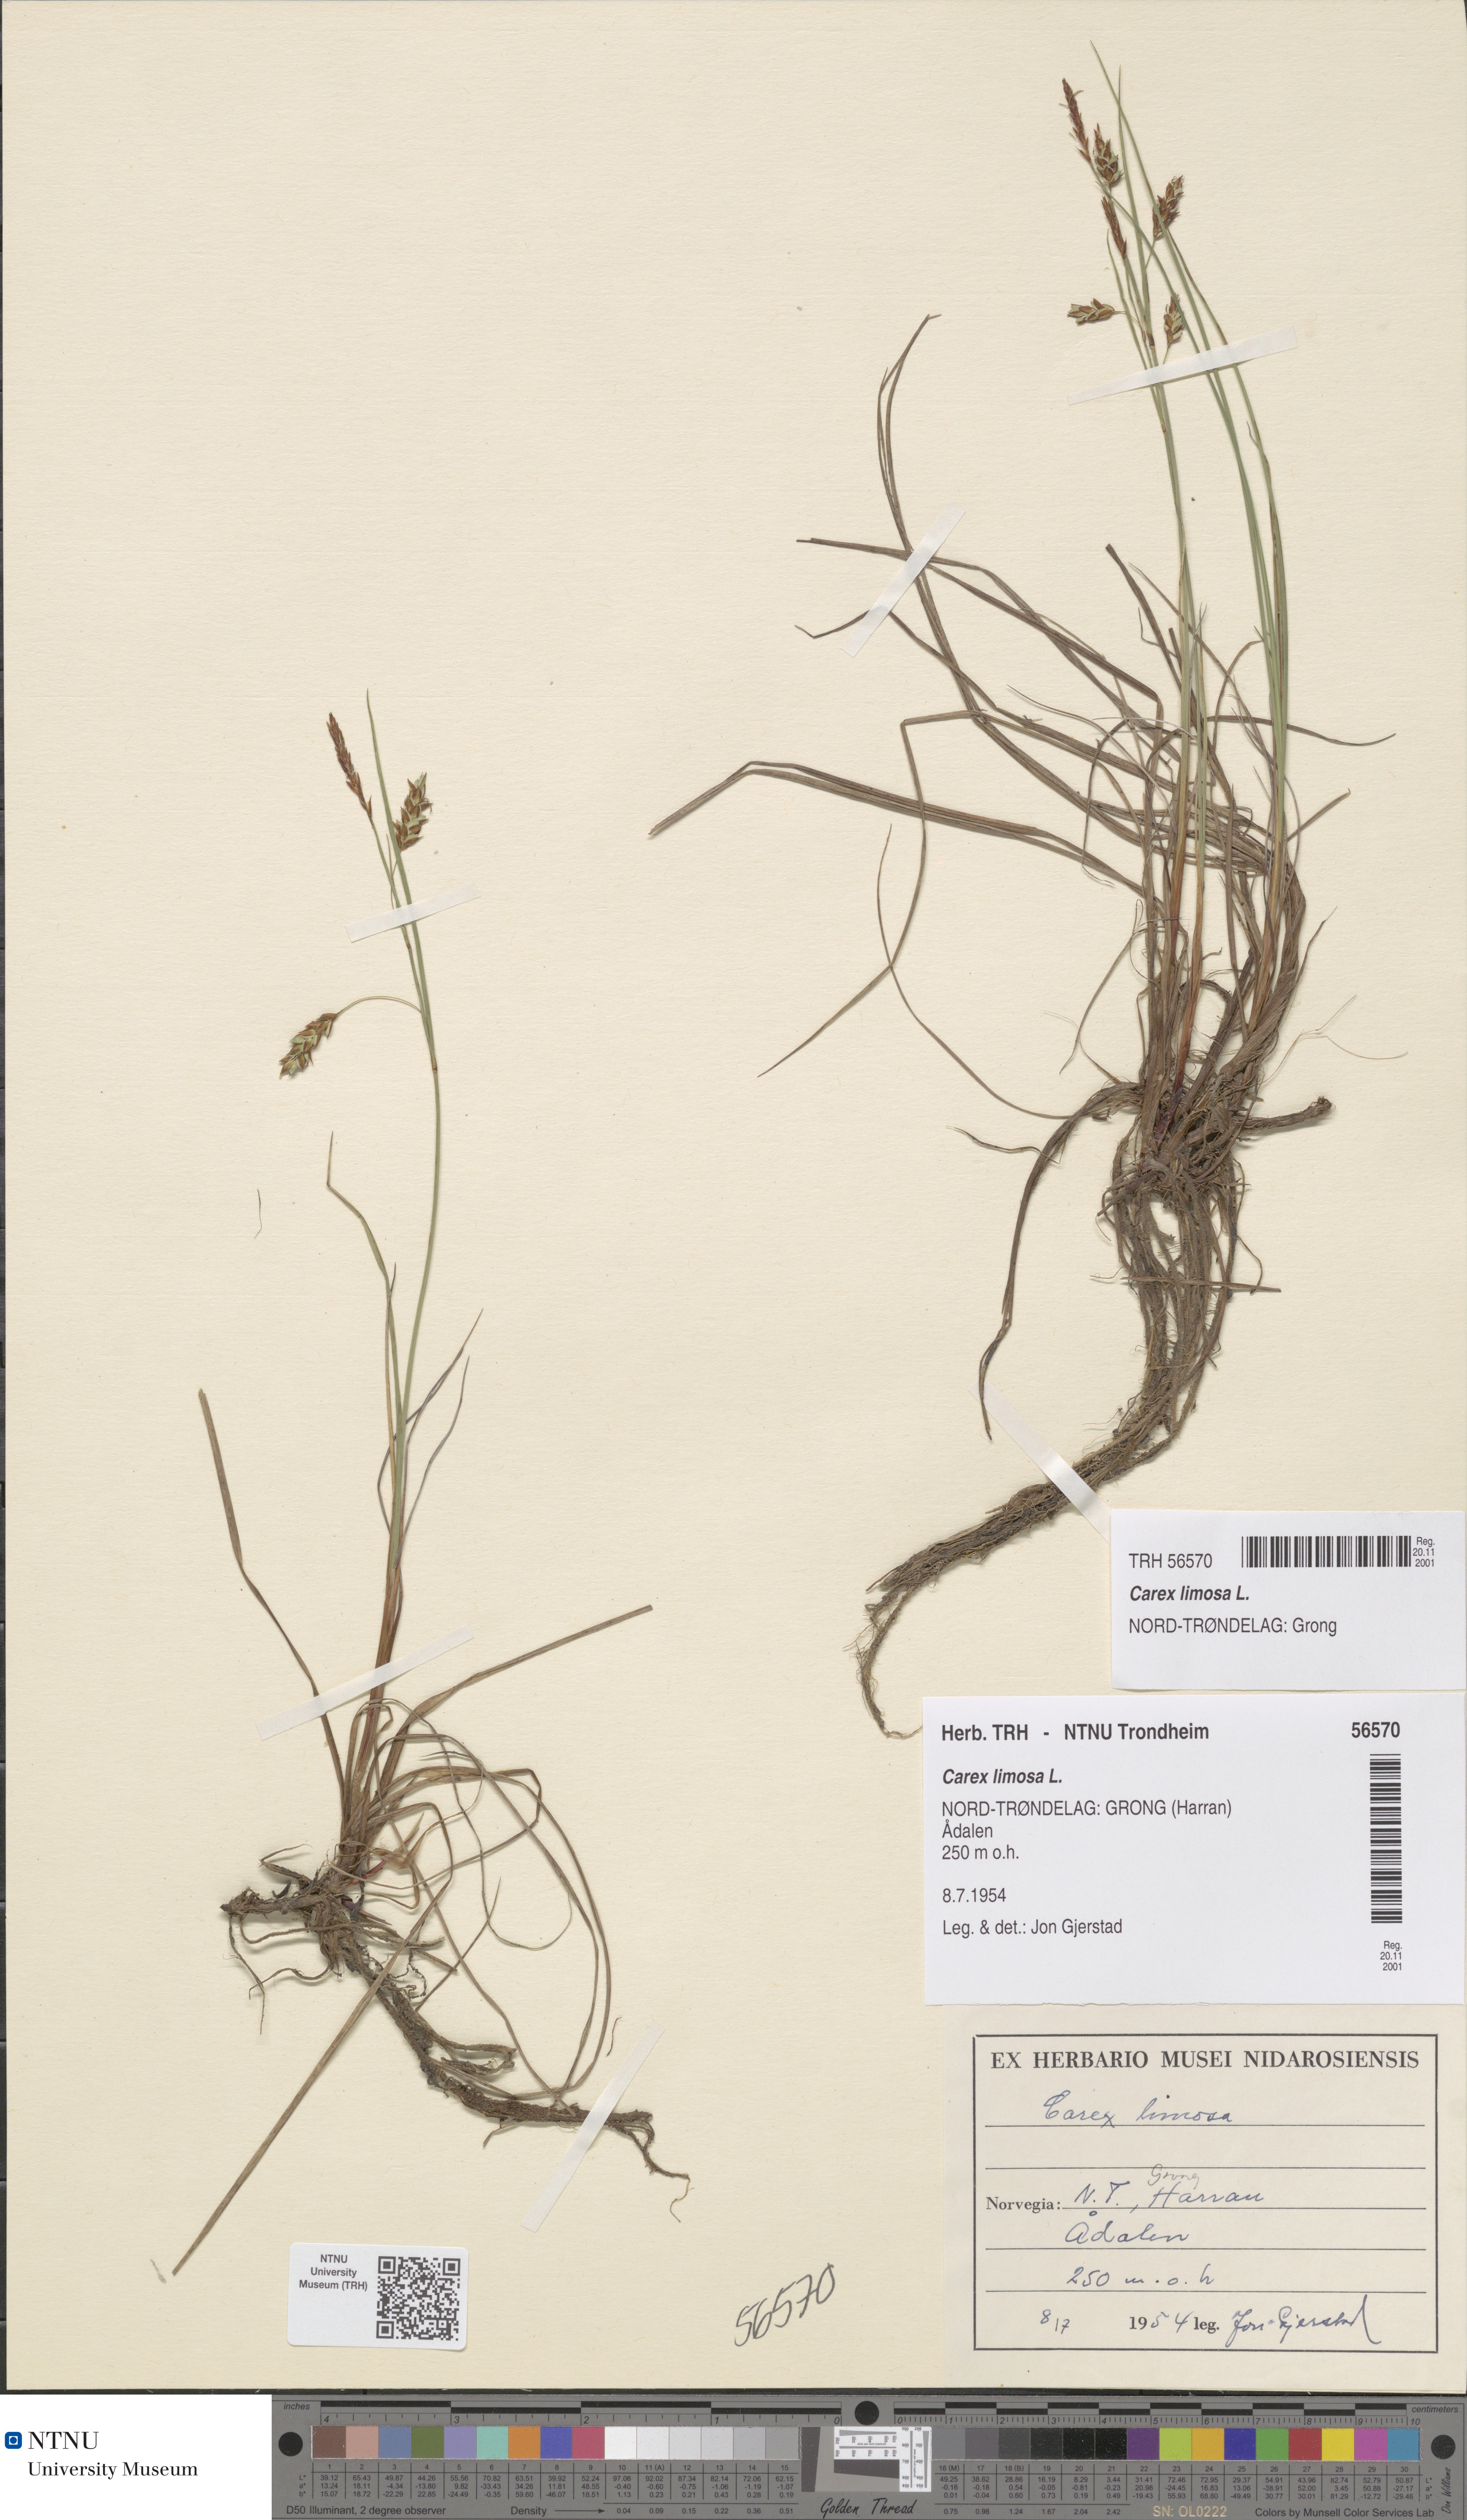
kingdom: Plantae
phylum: Tracheophyta
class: Liliopsida
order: Poales
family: Cyperaceae
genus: Carex
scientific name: Carex limosa
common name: Bog sedge
